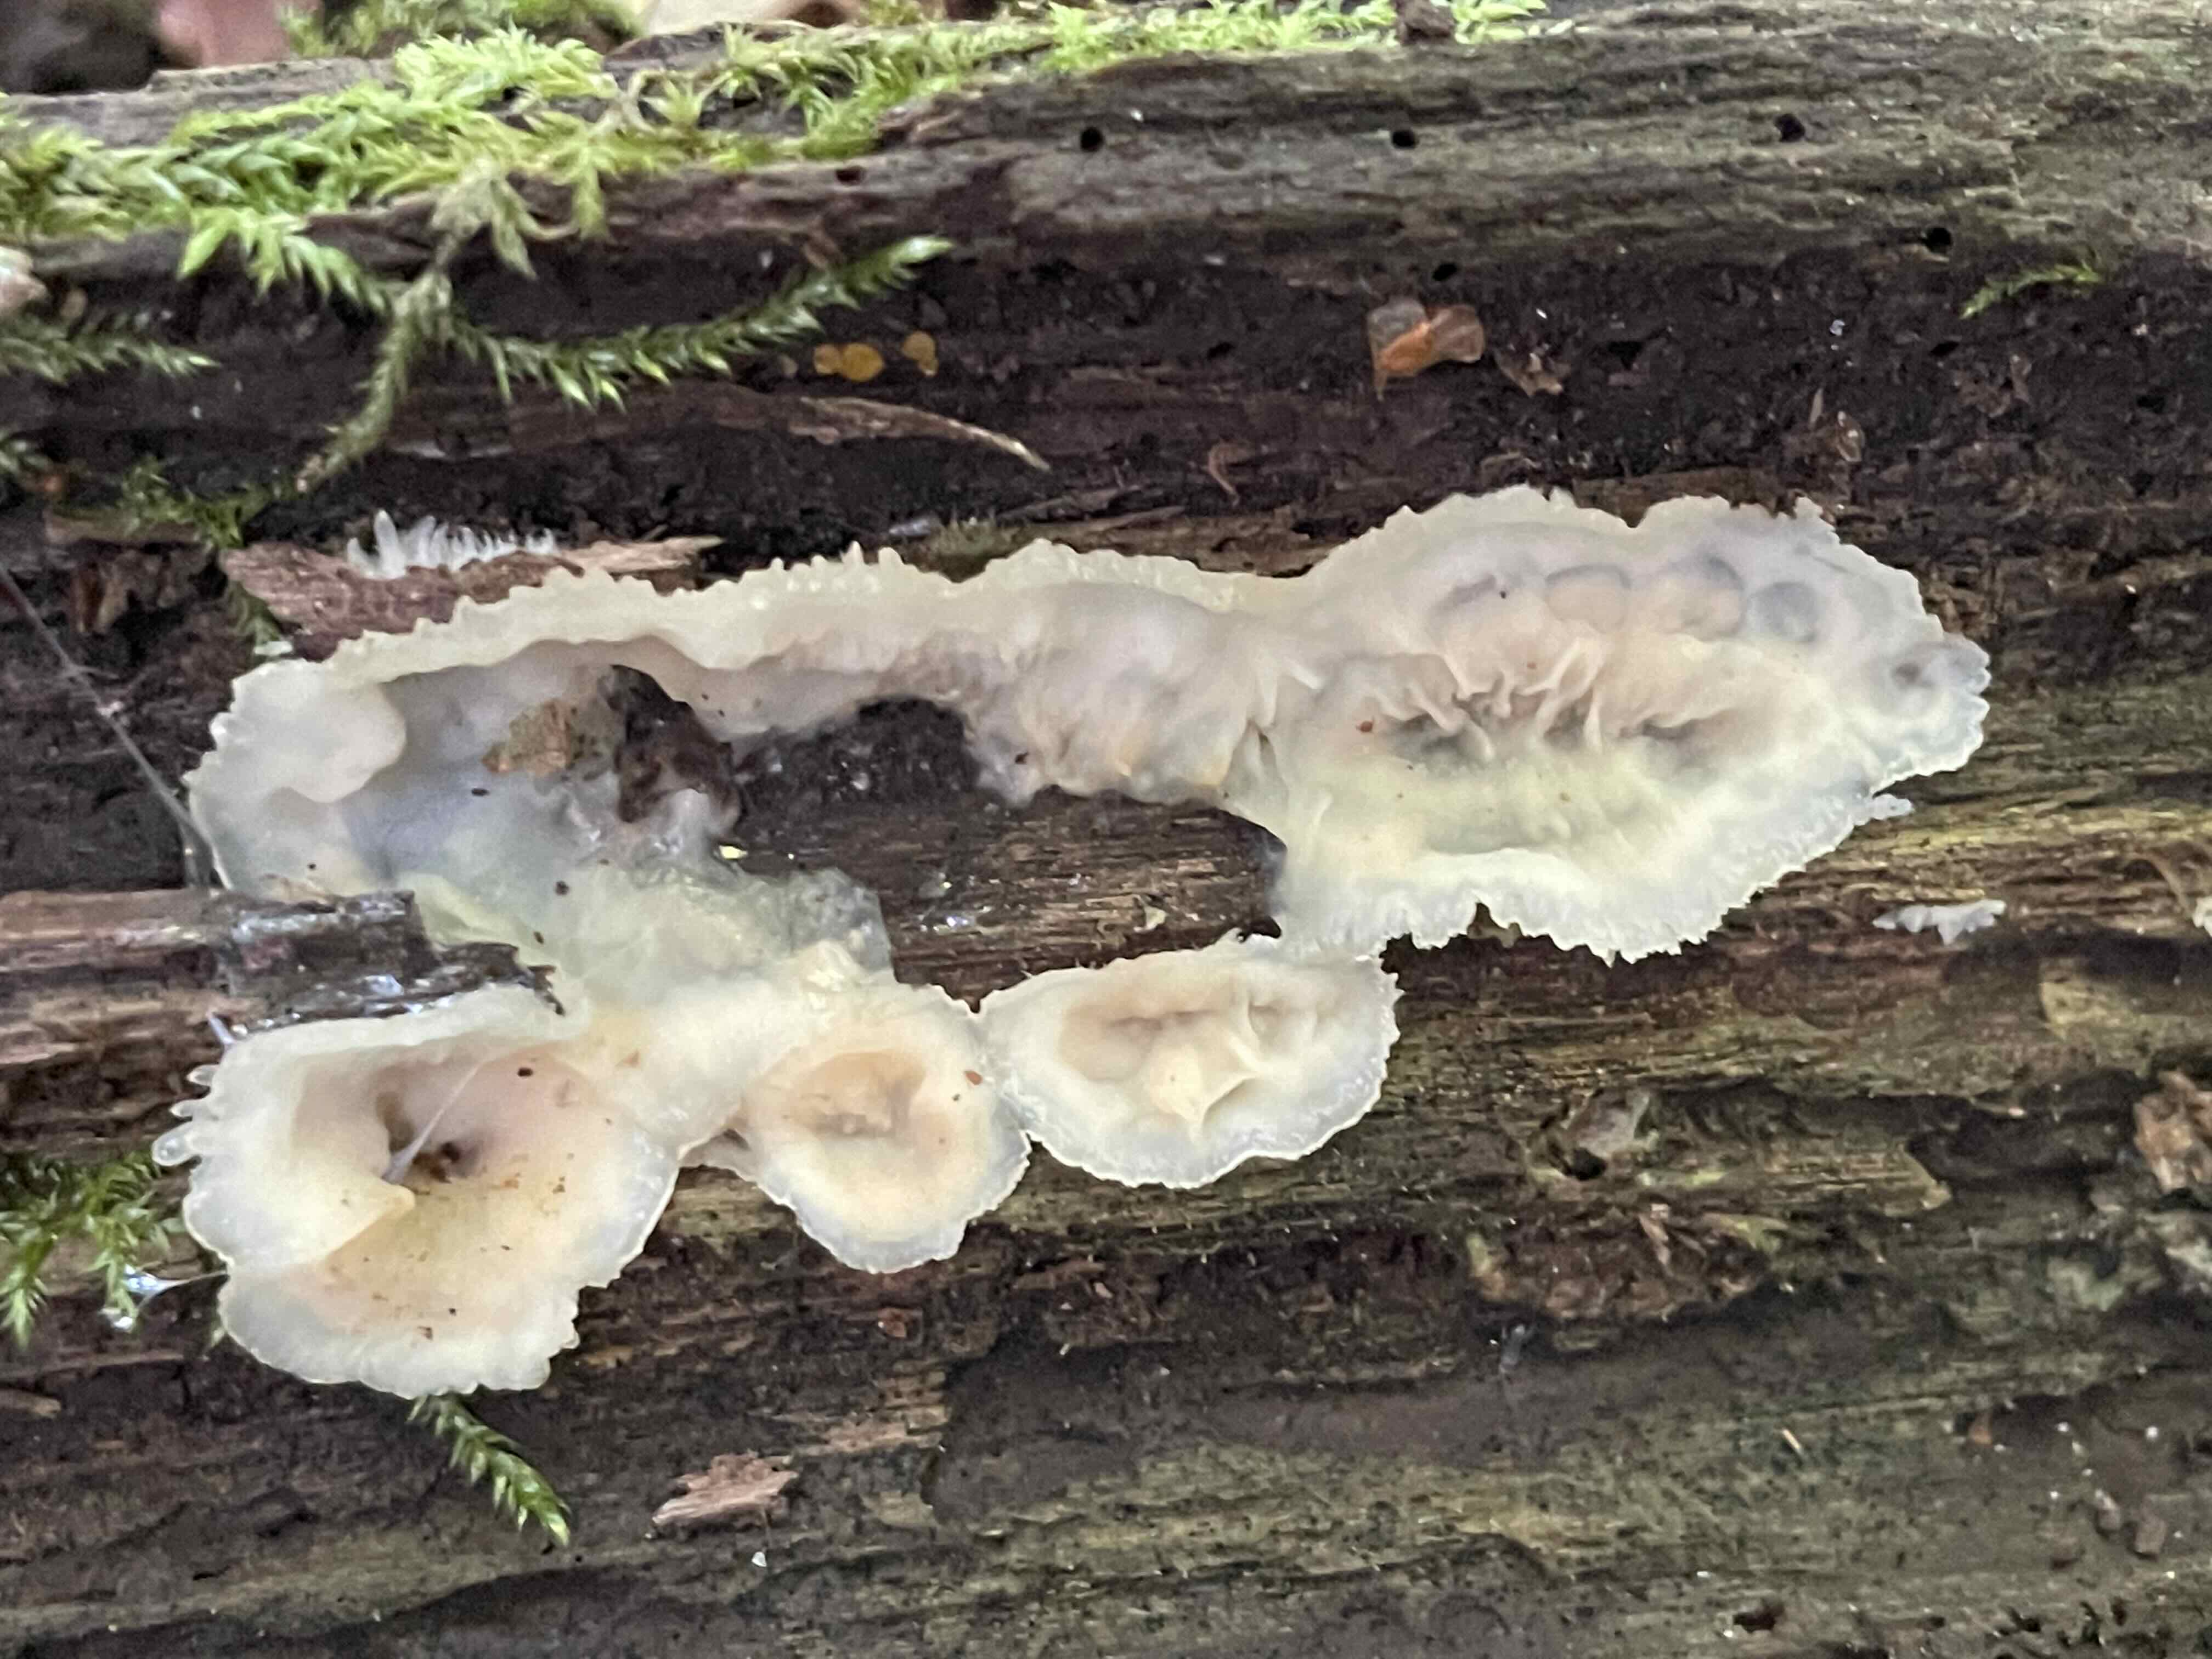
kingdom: Fungi
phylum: Basidiomycota
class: Agaricomycetes
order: Polyporales
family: Meruliaceae
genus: Phlebia
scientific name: Phlebia tremellosa
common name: bævrende åresvamp
